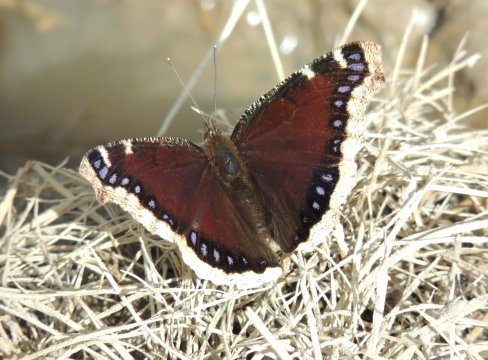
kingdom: Animalia
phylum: Arthropoda
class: Insecta
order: Lepidoptera
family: Nymphalidae
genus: Nymphalis
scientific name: Nymphalis antiopa
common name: Mourning Cloak
